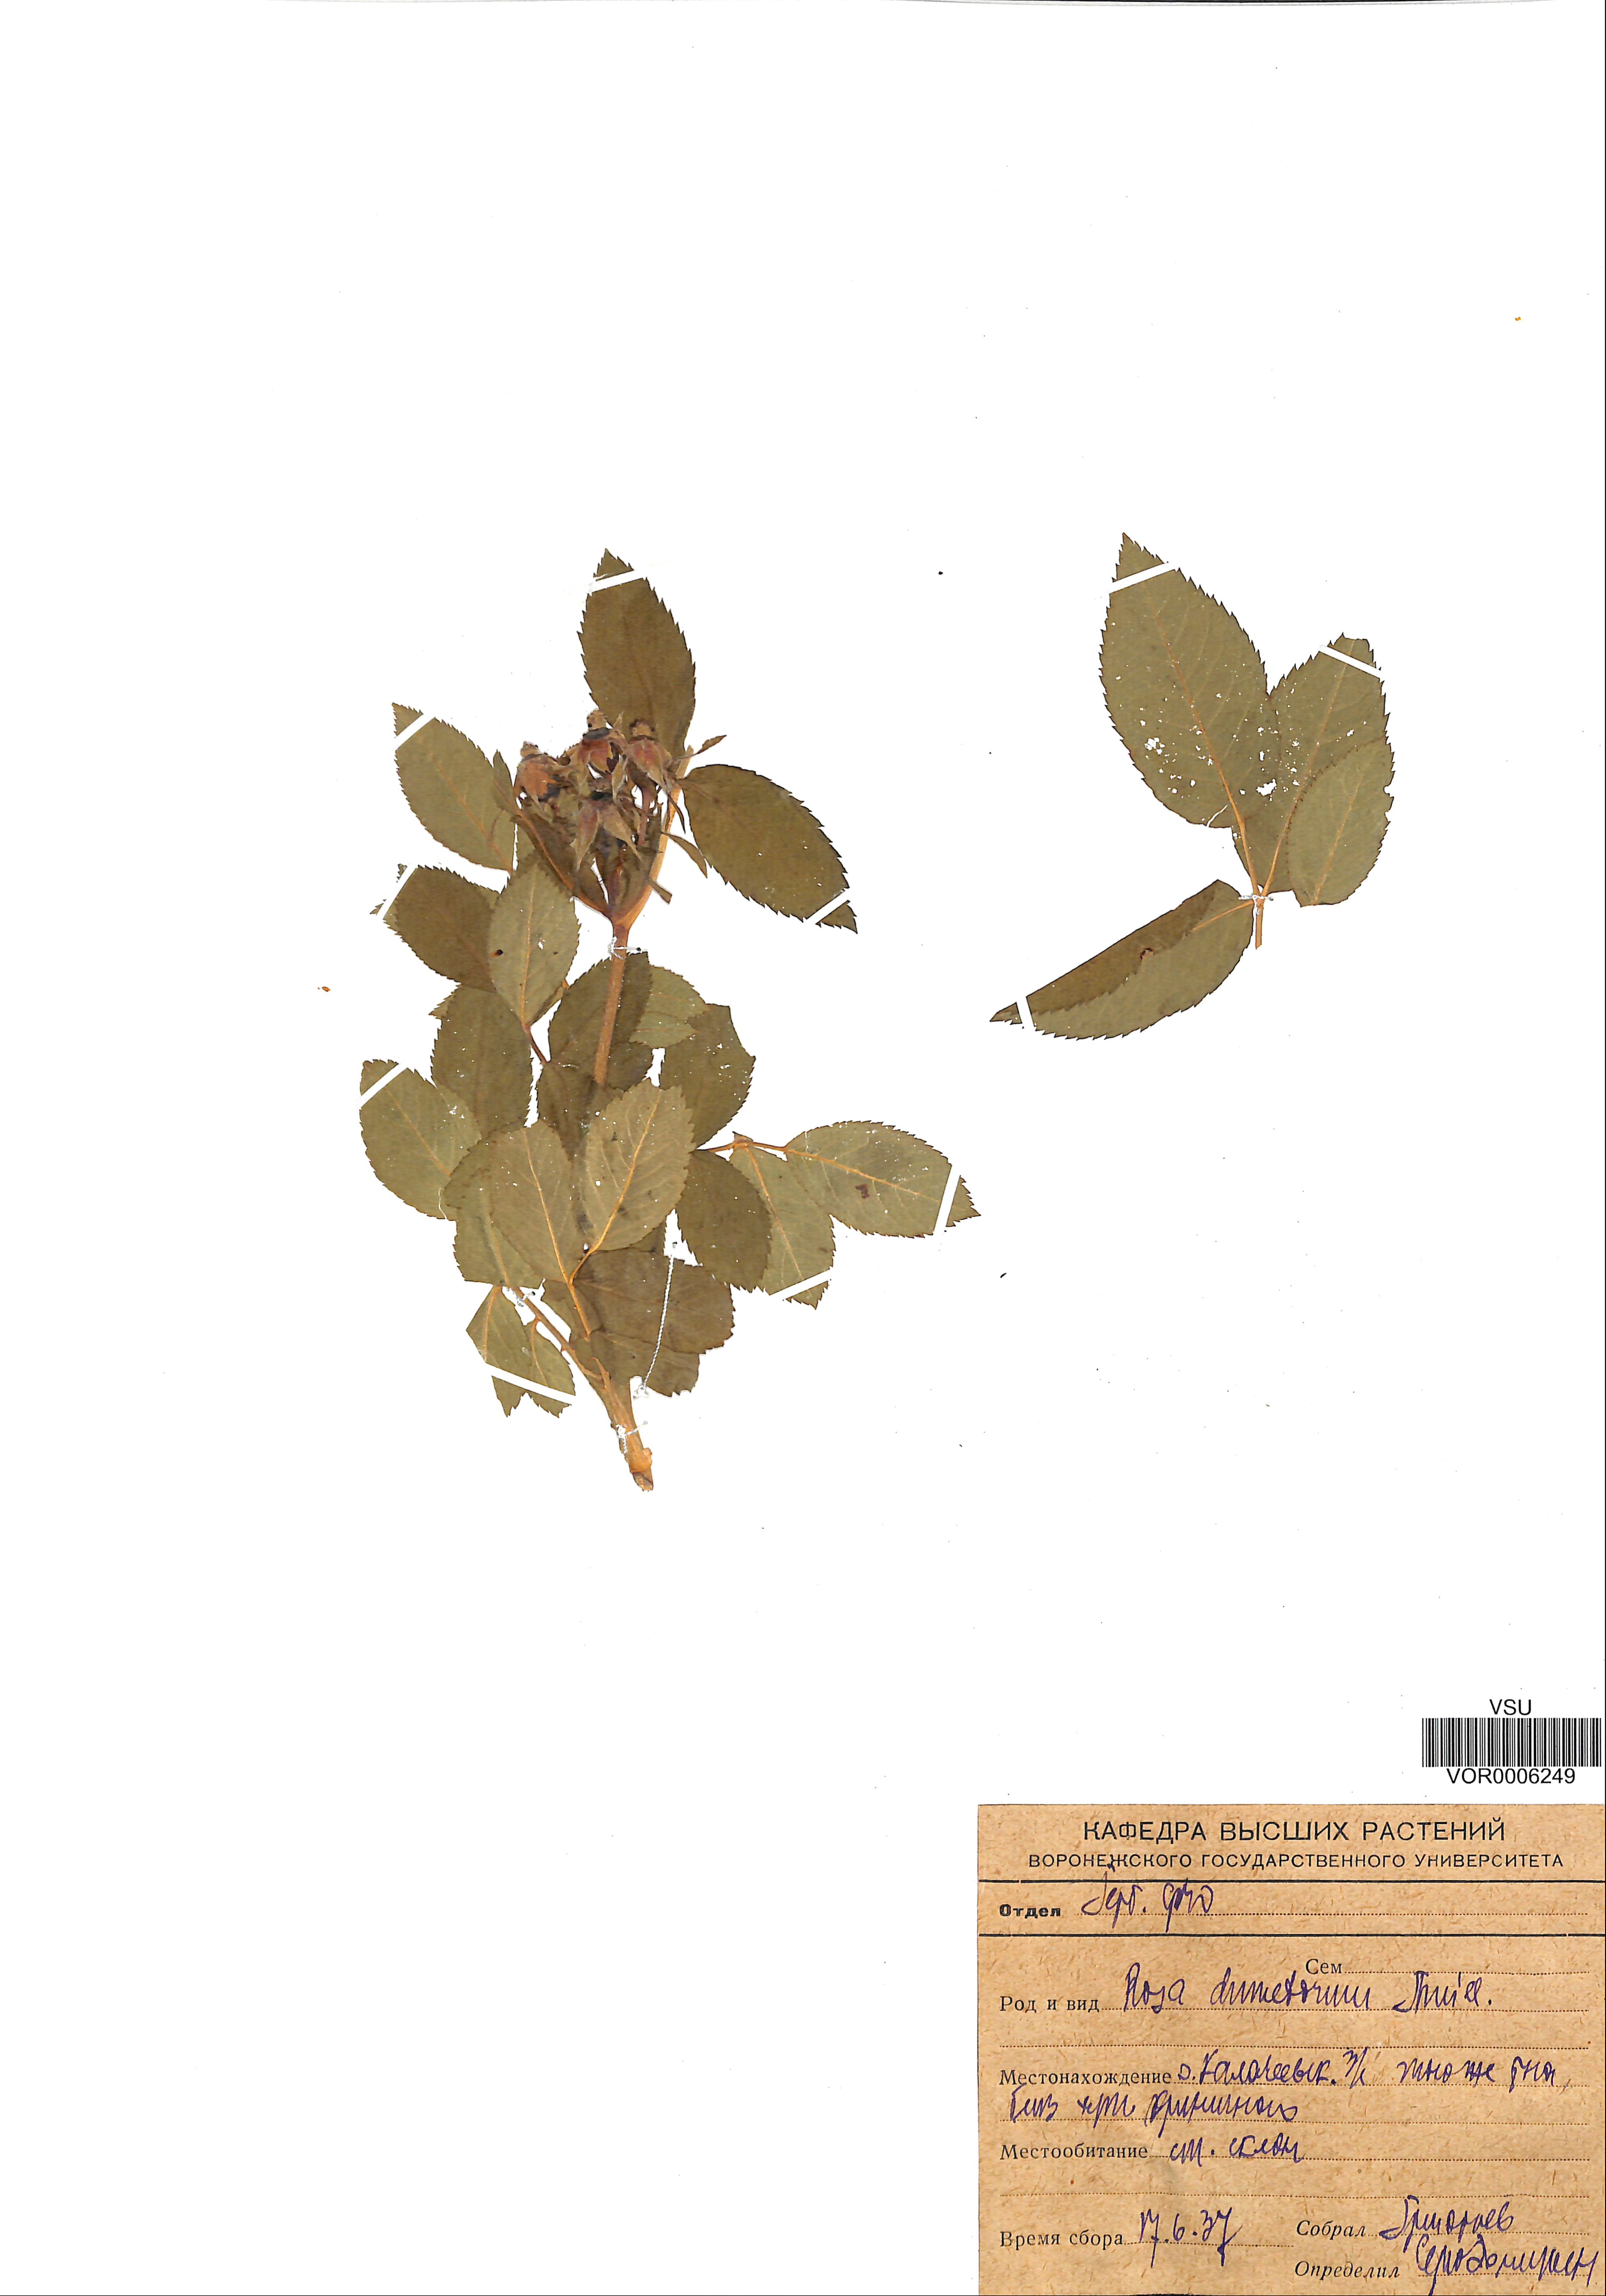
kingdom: Plantae
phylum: Tracheophyta
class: Magnoliopsida
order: Rosales
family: Rosaceae
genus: Rosa
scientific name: Rosa canina
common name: Dog rose
